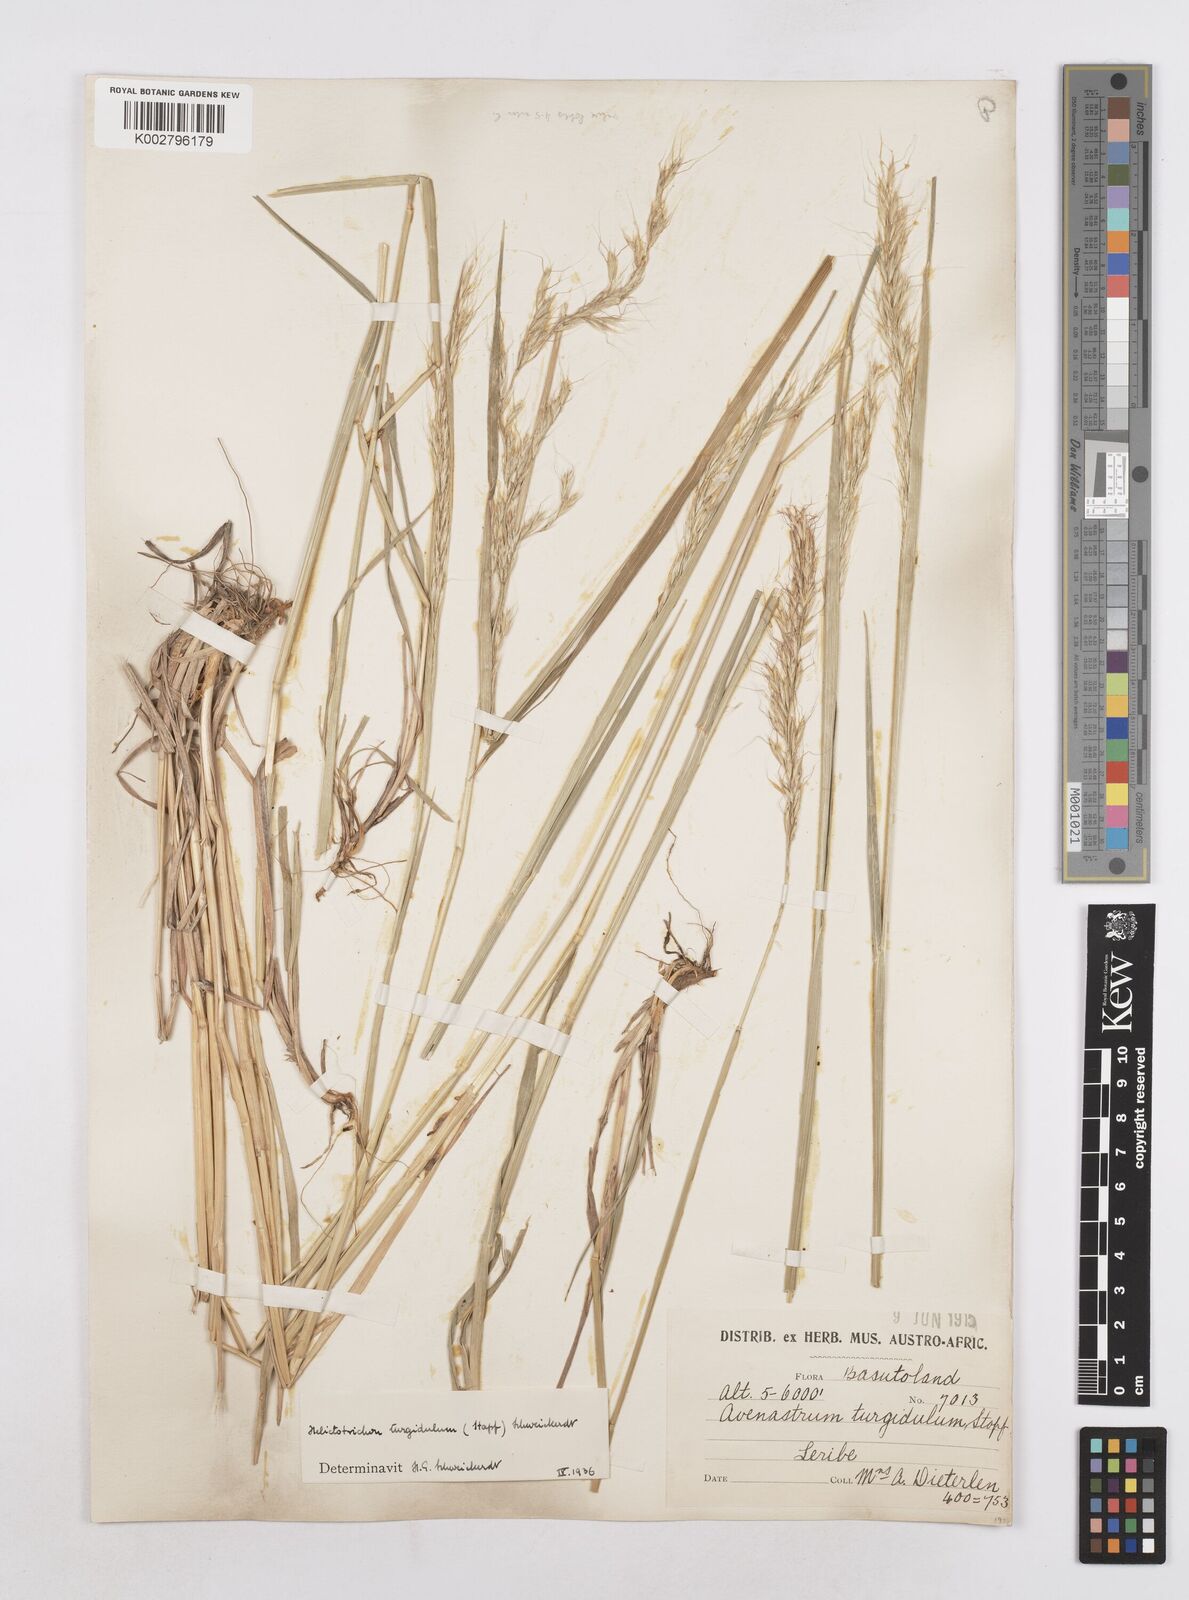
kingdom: Plantae
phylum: Tracheophyta
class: Liliopsida
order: Poales
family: Poaceae
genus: Trisetopsis
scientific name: Trisetopsis imberbis
